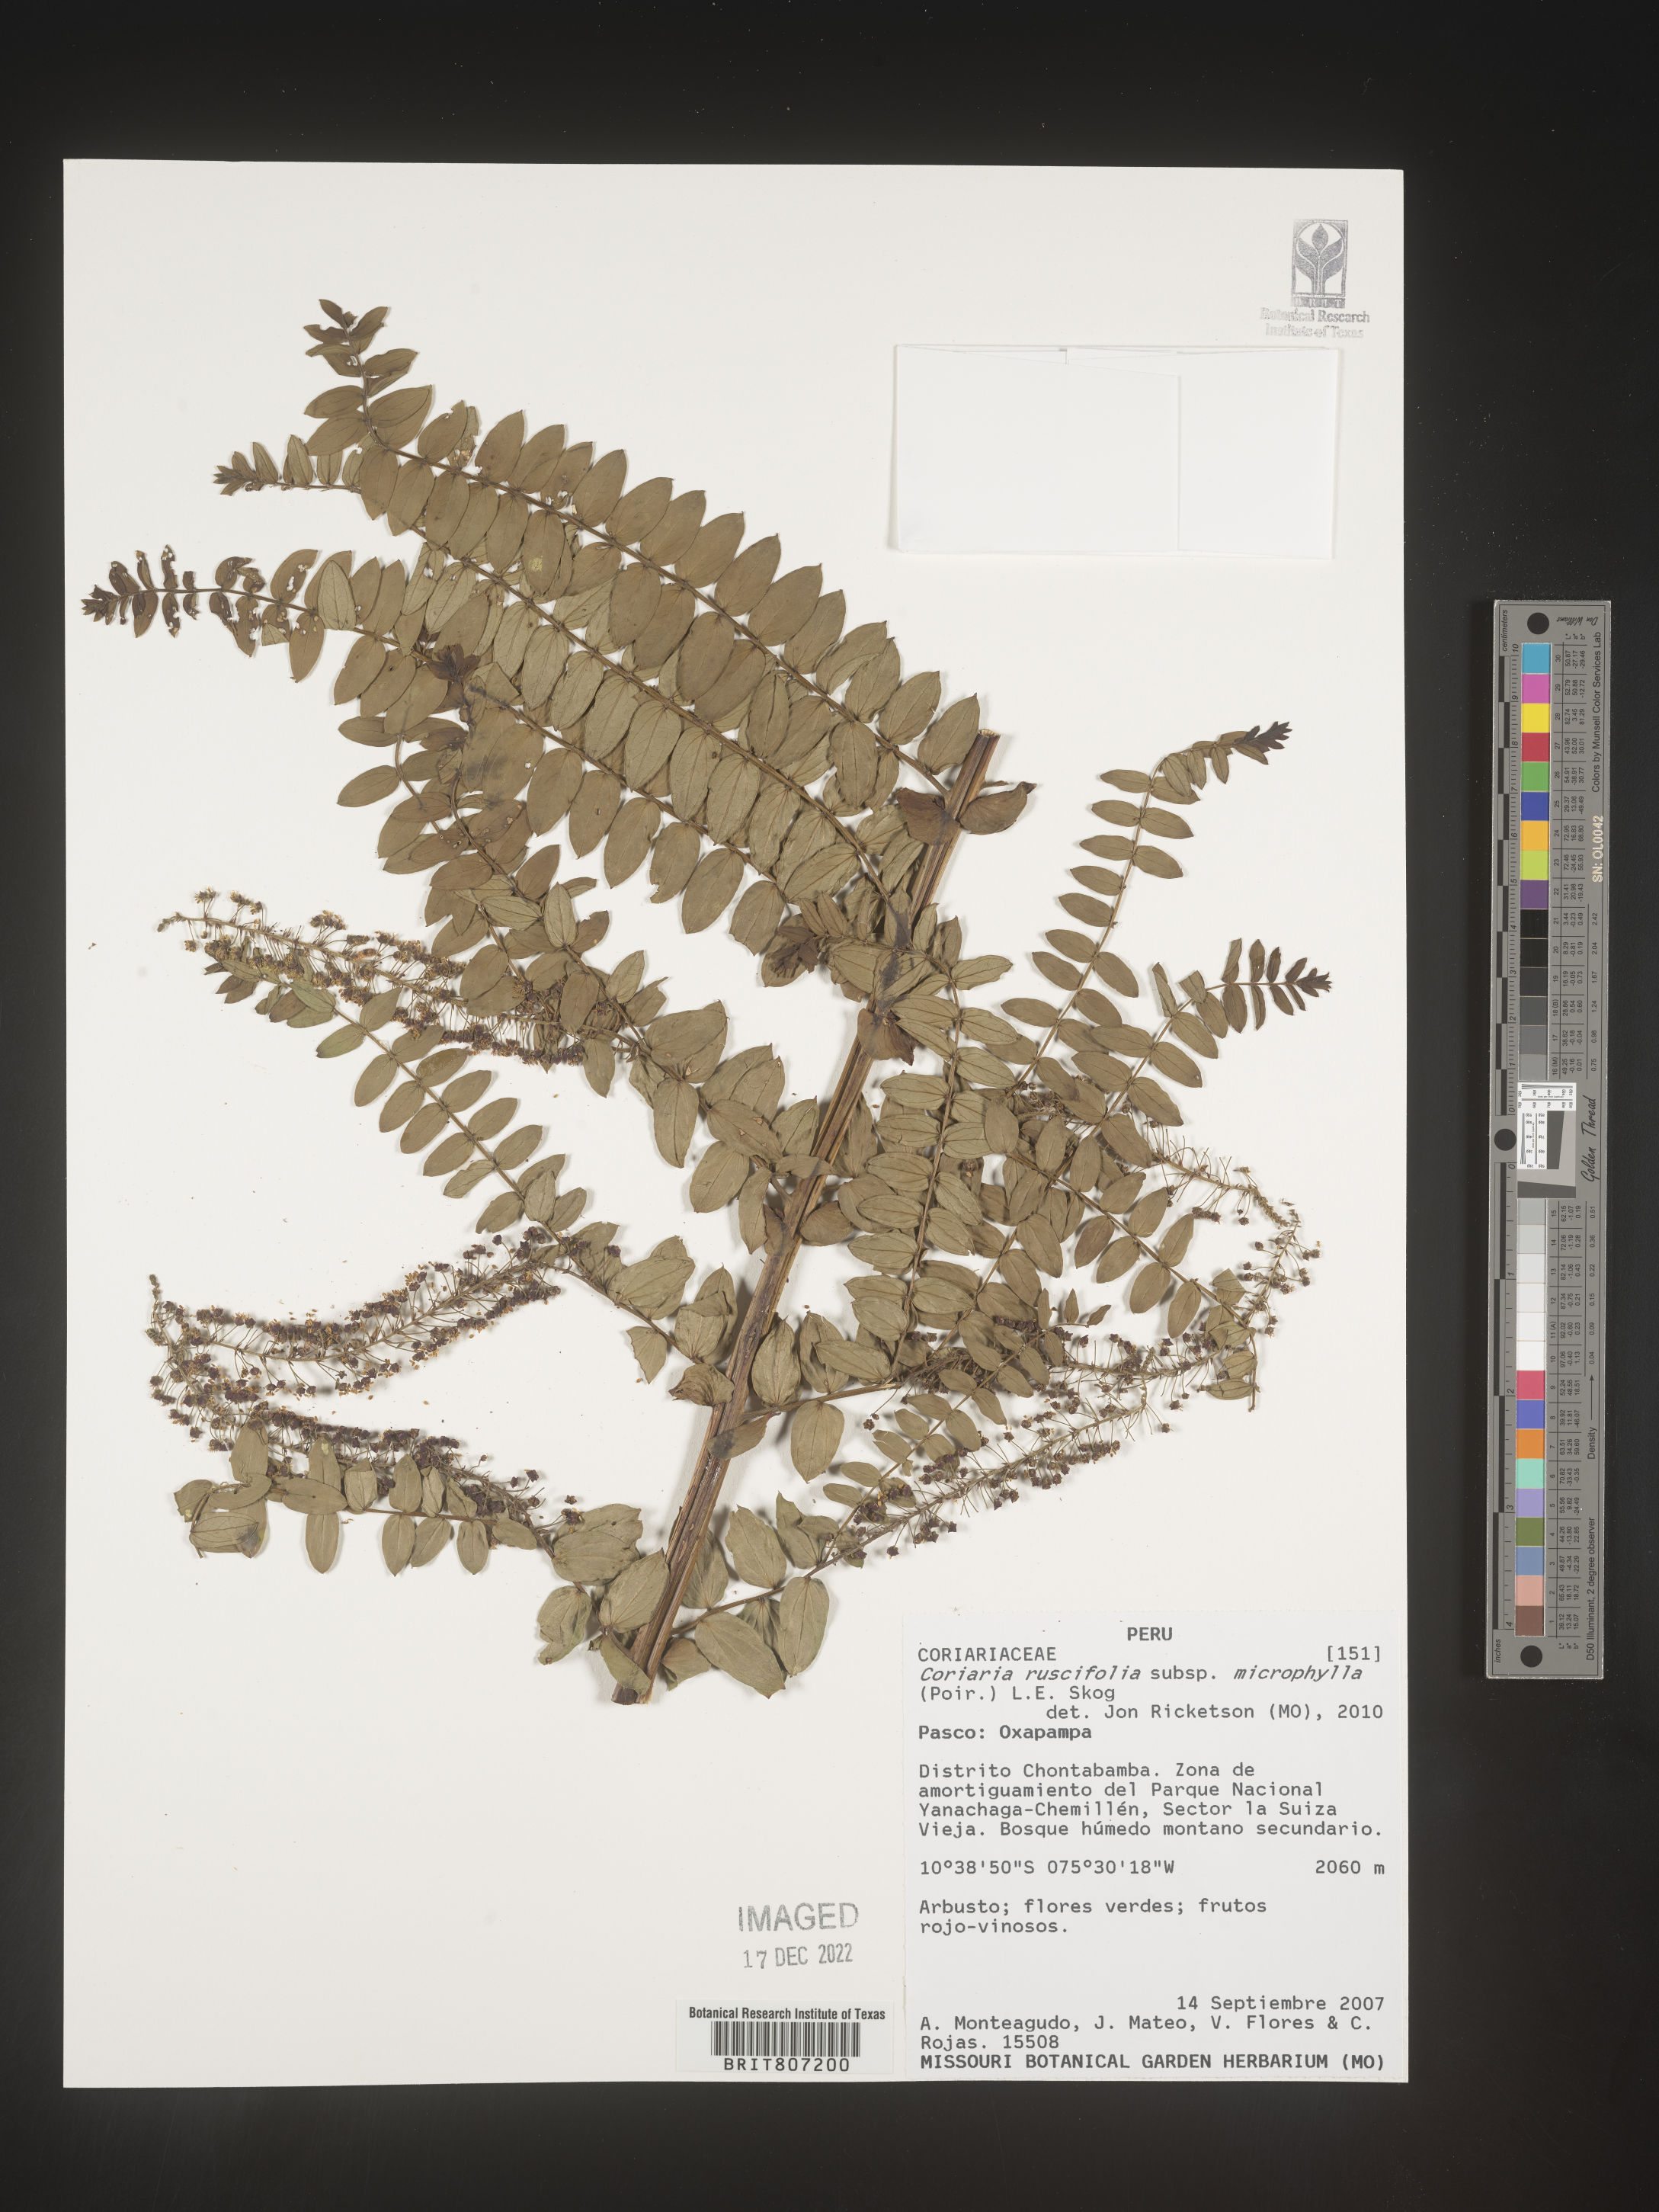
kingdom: Plantae
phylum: Tracheophyta
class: Magnoliopsida
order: Cucurbitales
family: Coriariaceae
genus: Coriaria
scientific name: Coriaria
